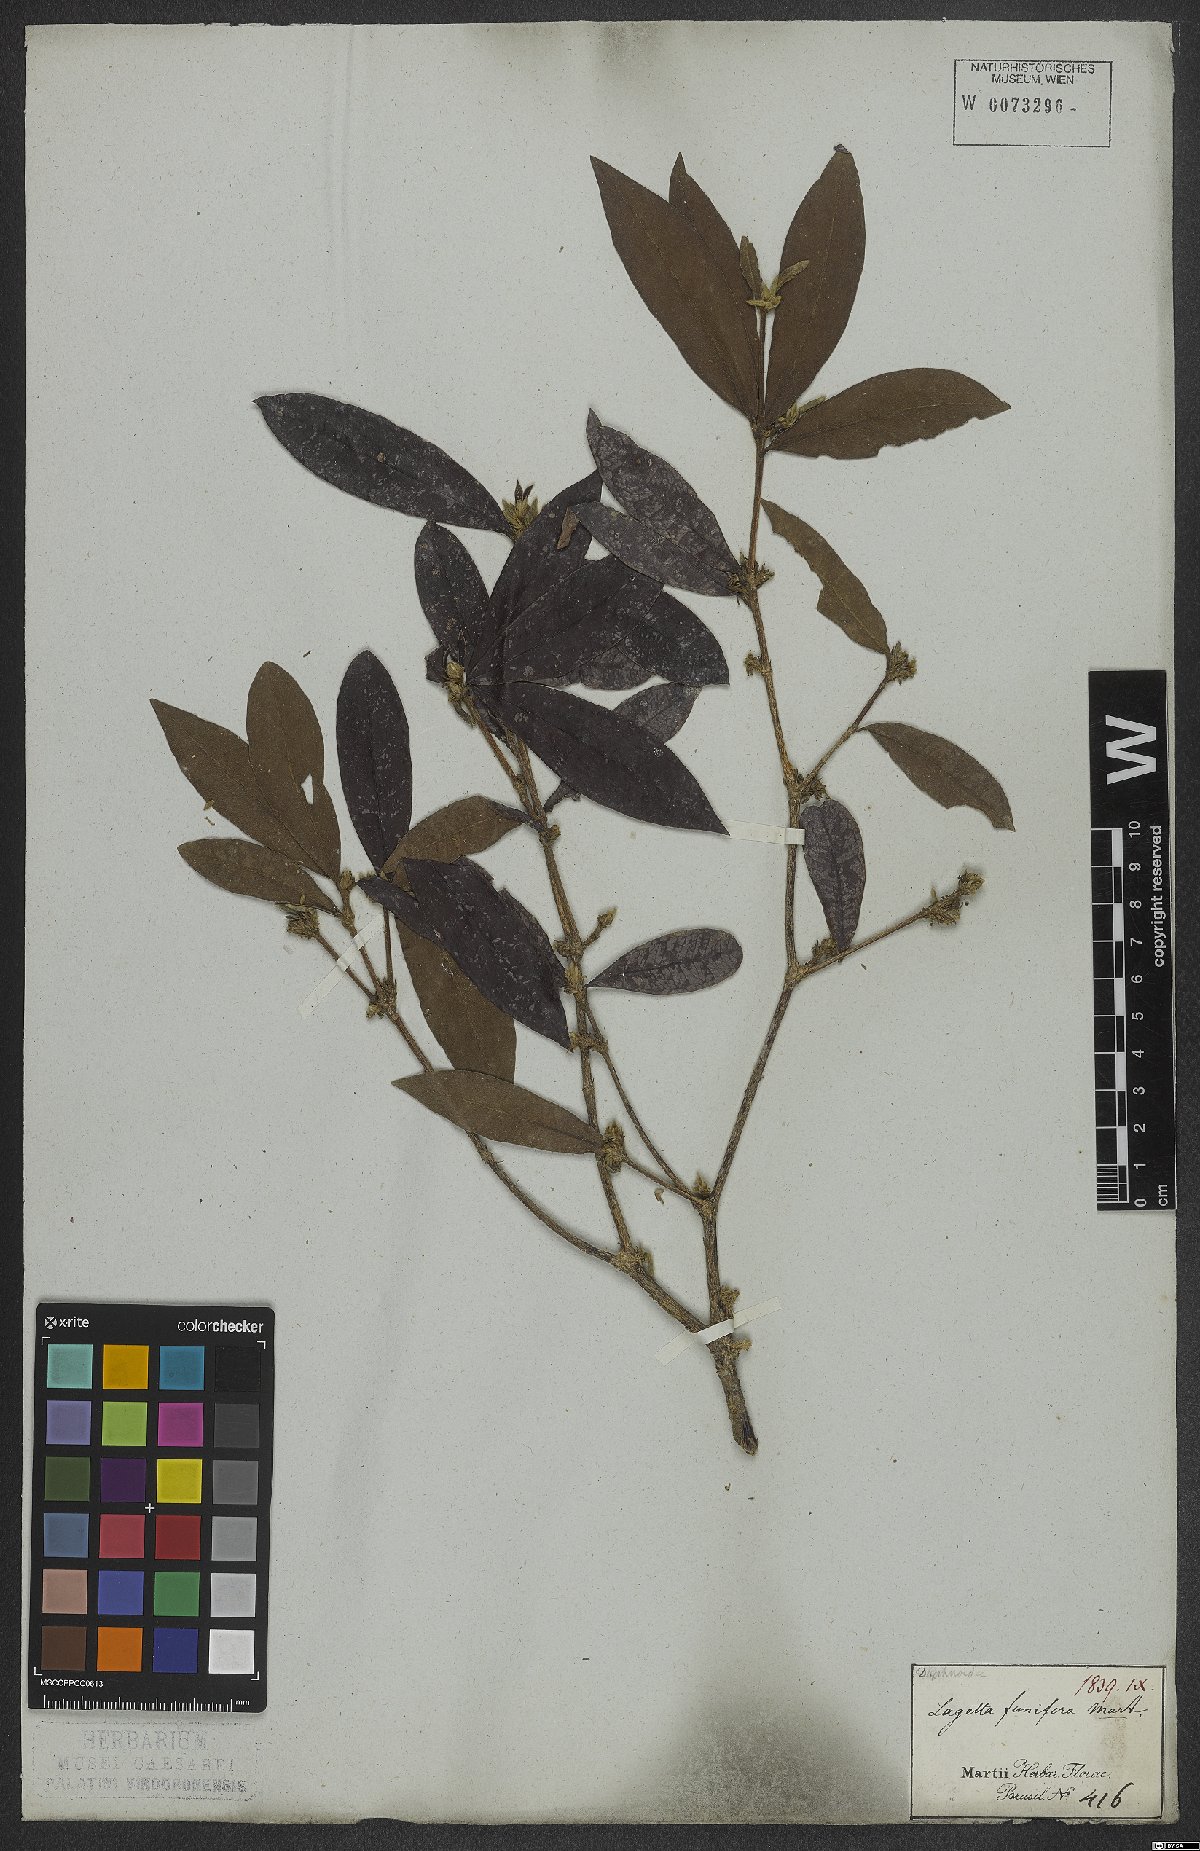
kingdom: Plantae
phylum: Tracheophyta
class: Magnoliopsida
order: Malvales
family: Thymelaeaceae
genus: Funifera
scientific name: Funifera brasiliensis
